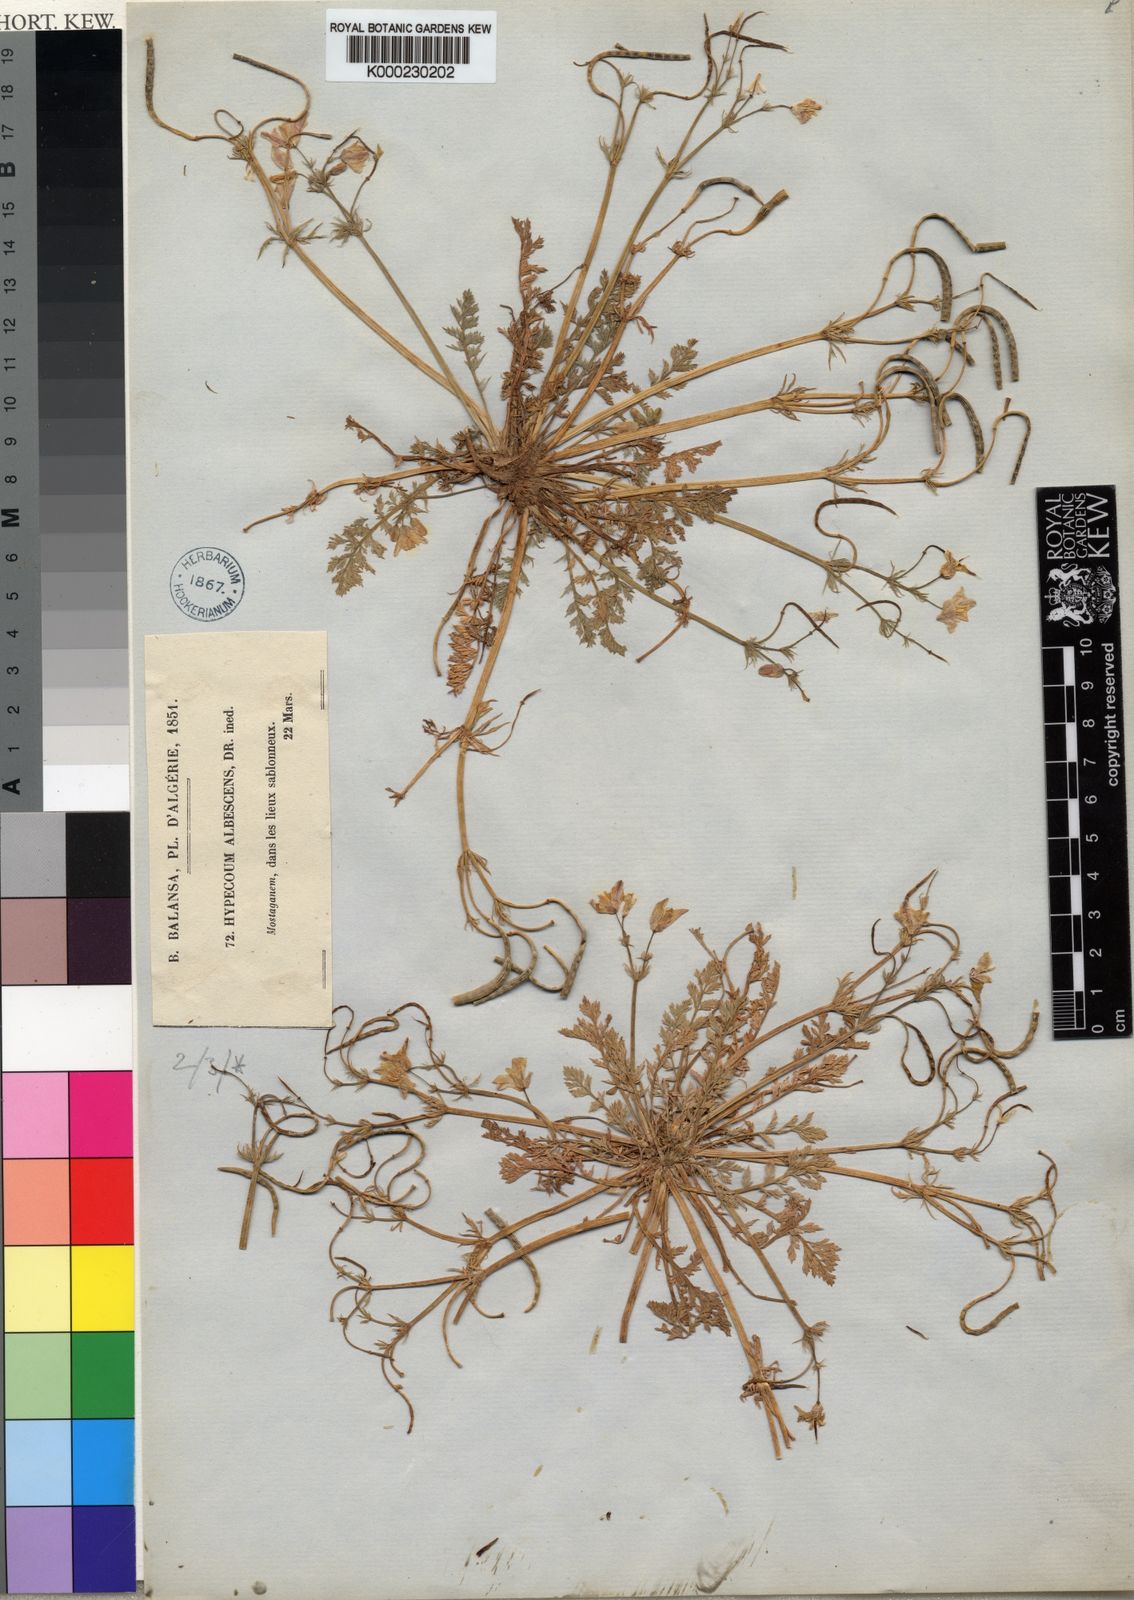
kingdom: Plantae
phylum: Tracheophyta
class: Magnoliopsida
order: Ranunculales
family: Papaveraceae
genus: Hypecoum
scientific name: Hypecoum
